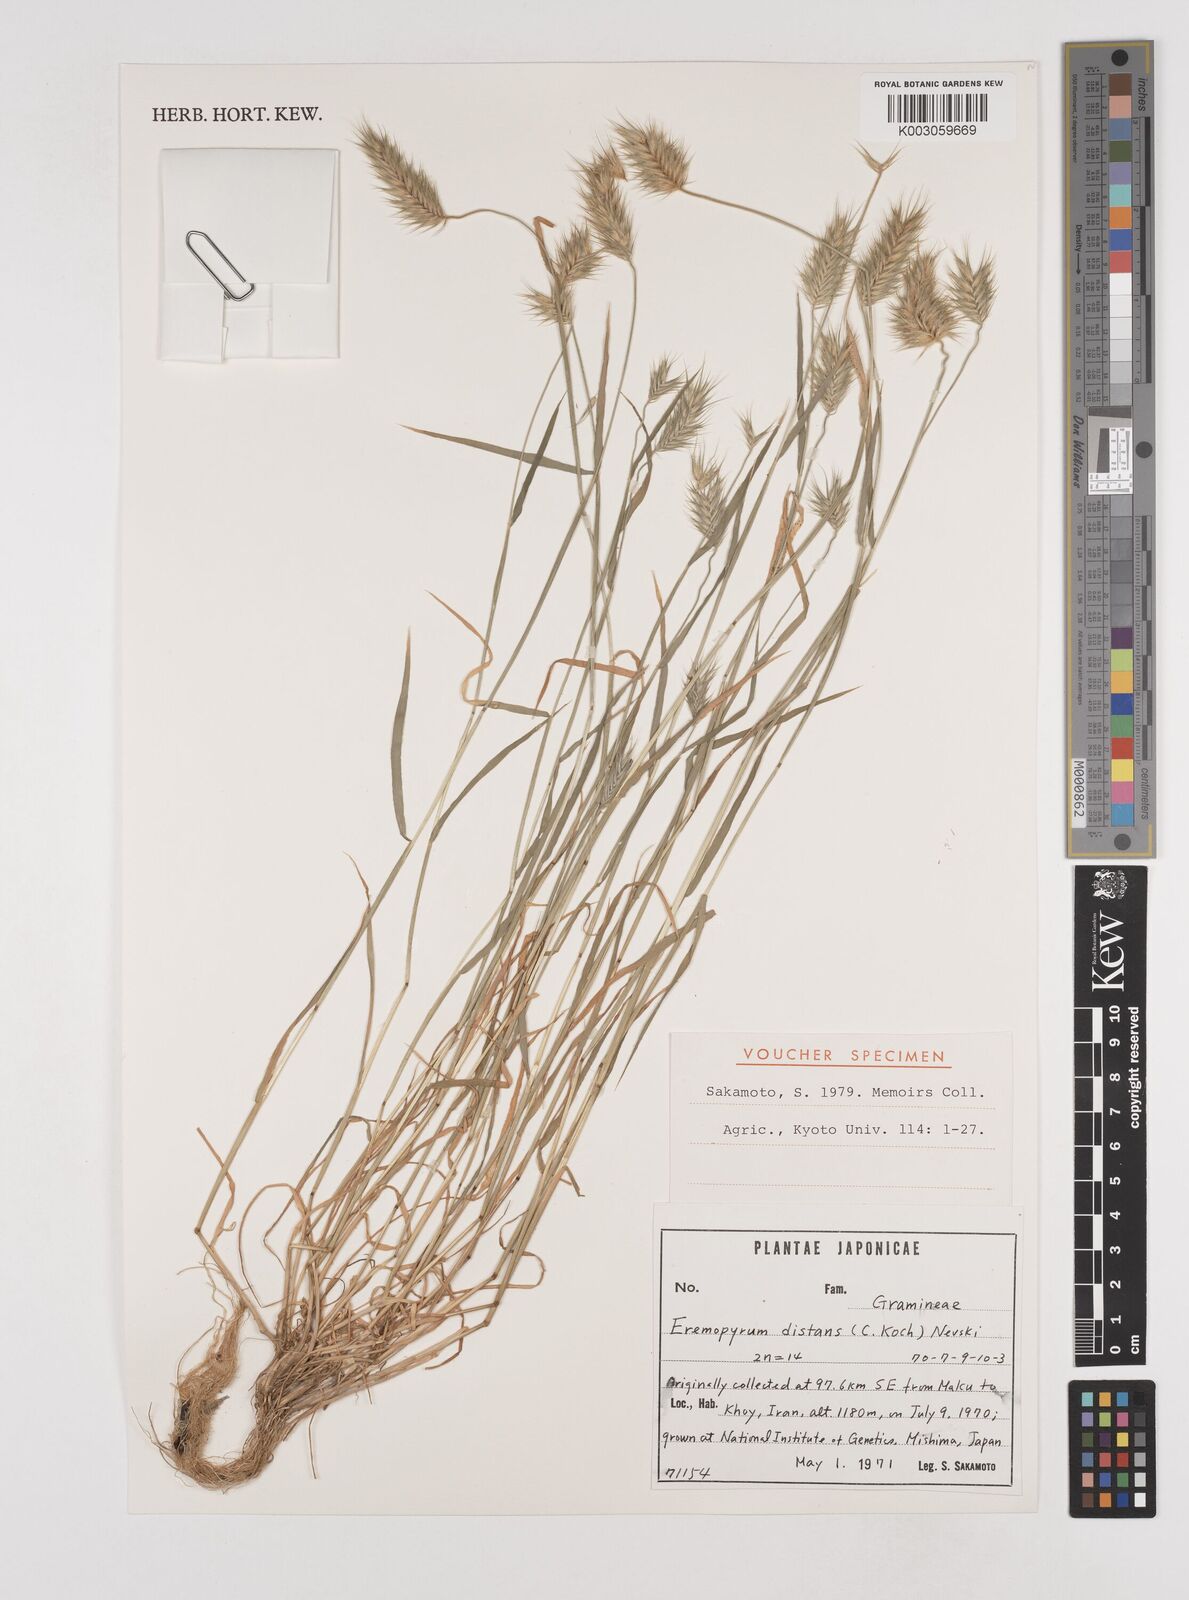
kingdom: Plantae
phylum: Tracheophyta
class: Liliopsida
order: Poales
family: Poaceae
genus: Eremopyrum
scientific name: Eremopyrum distans
